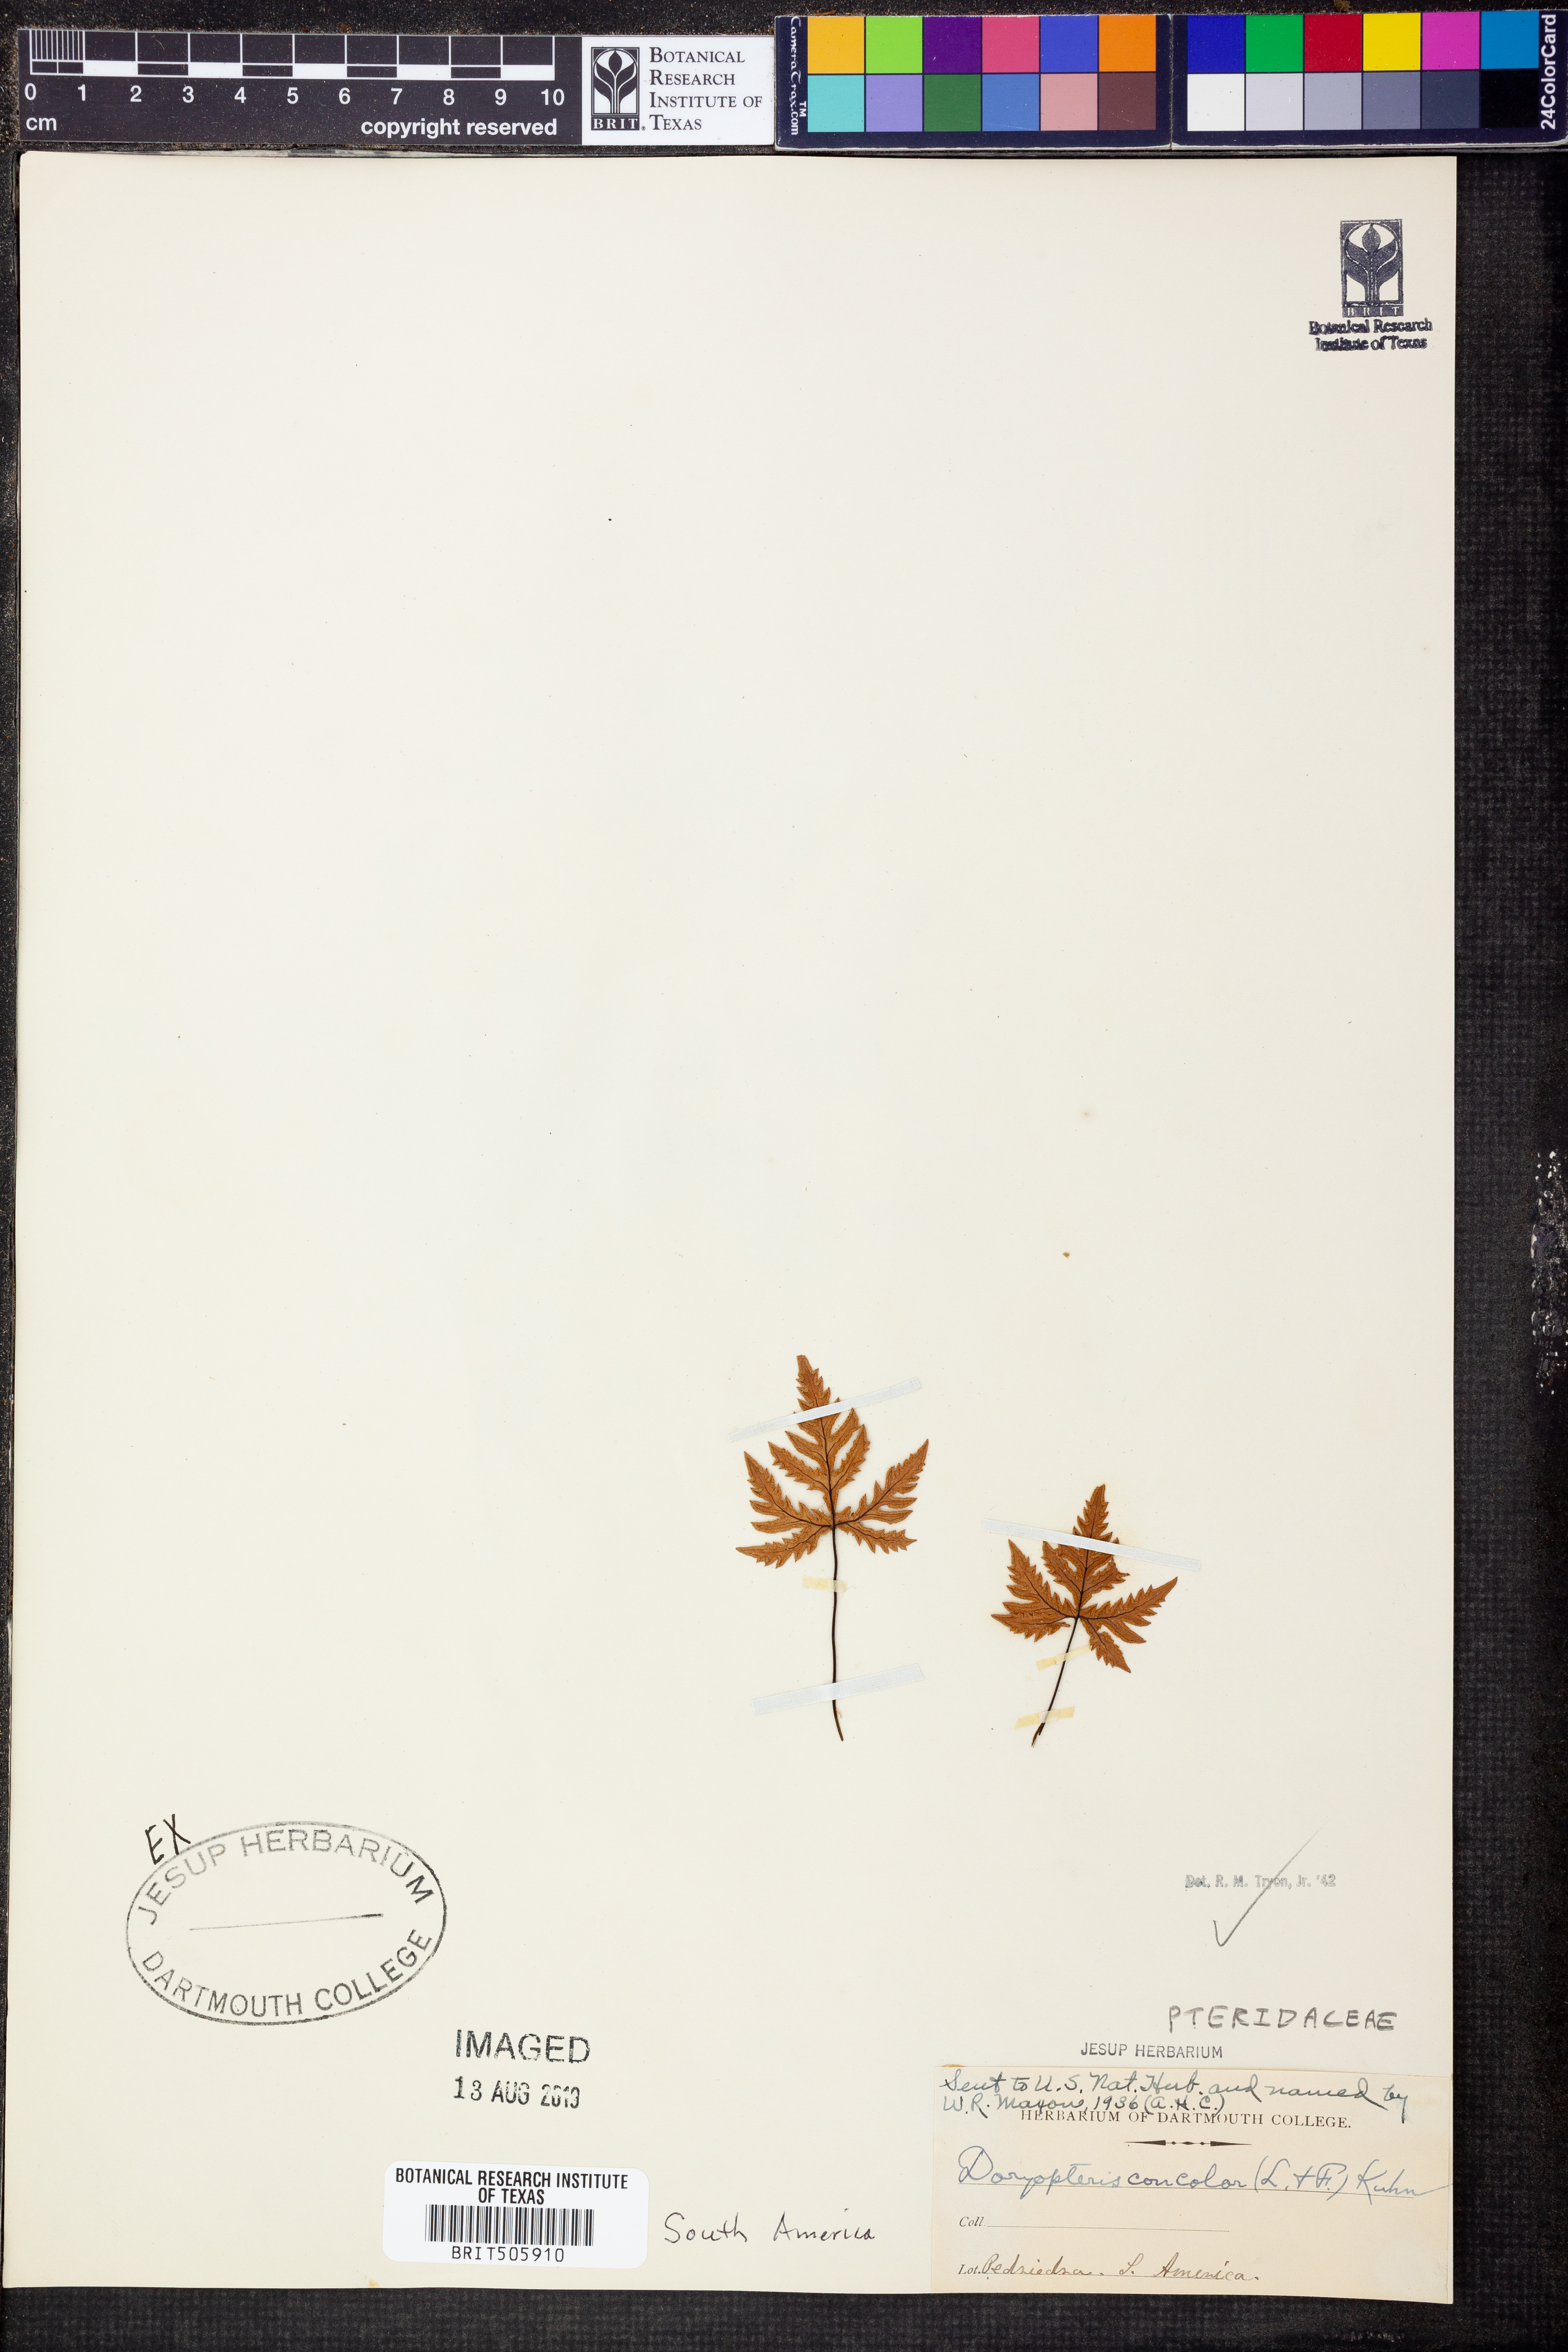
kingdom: Plantae
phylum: Tracheophyta
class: Polypodiopsida
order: Polypodiales
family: Pteridaceae
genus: Doryopteris
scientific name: Doryopteris concolor
